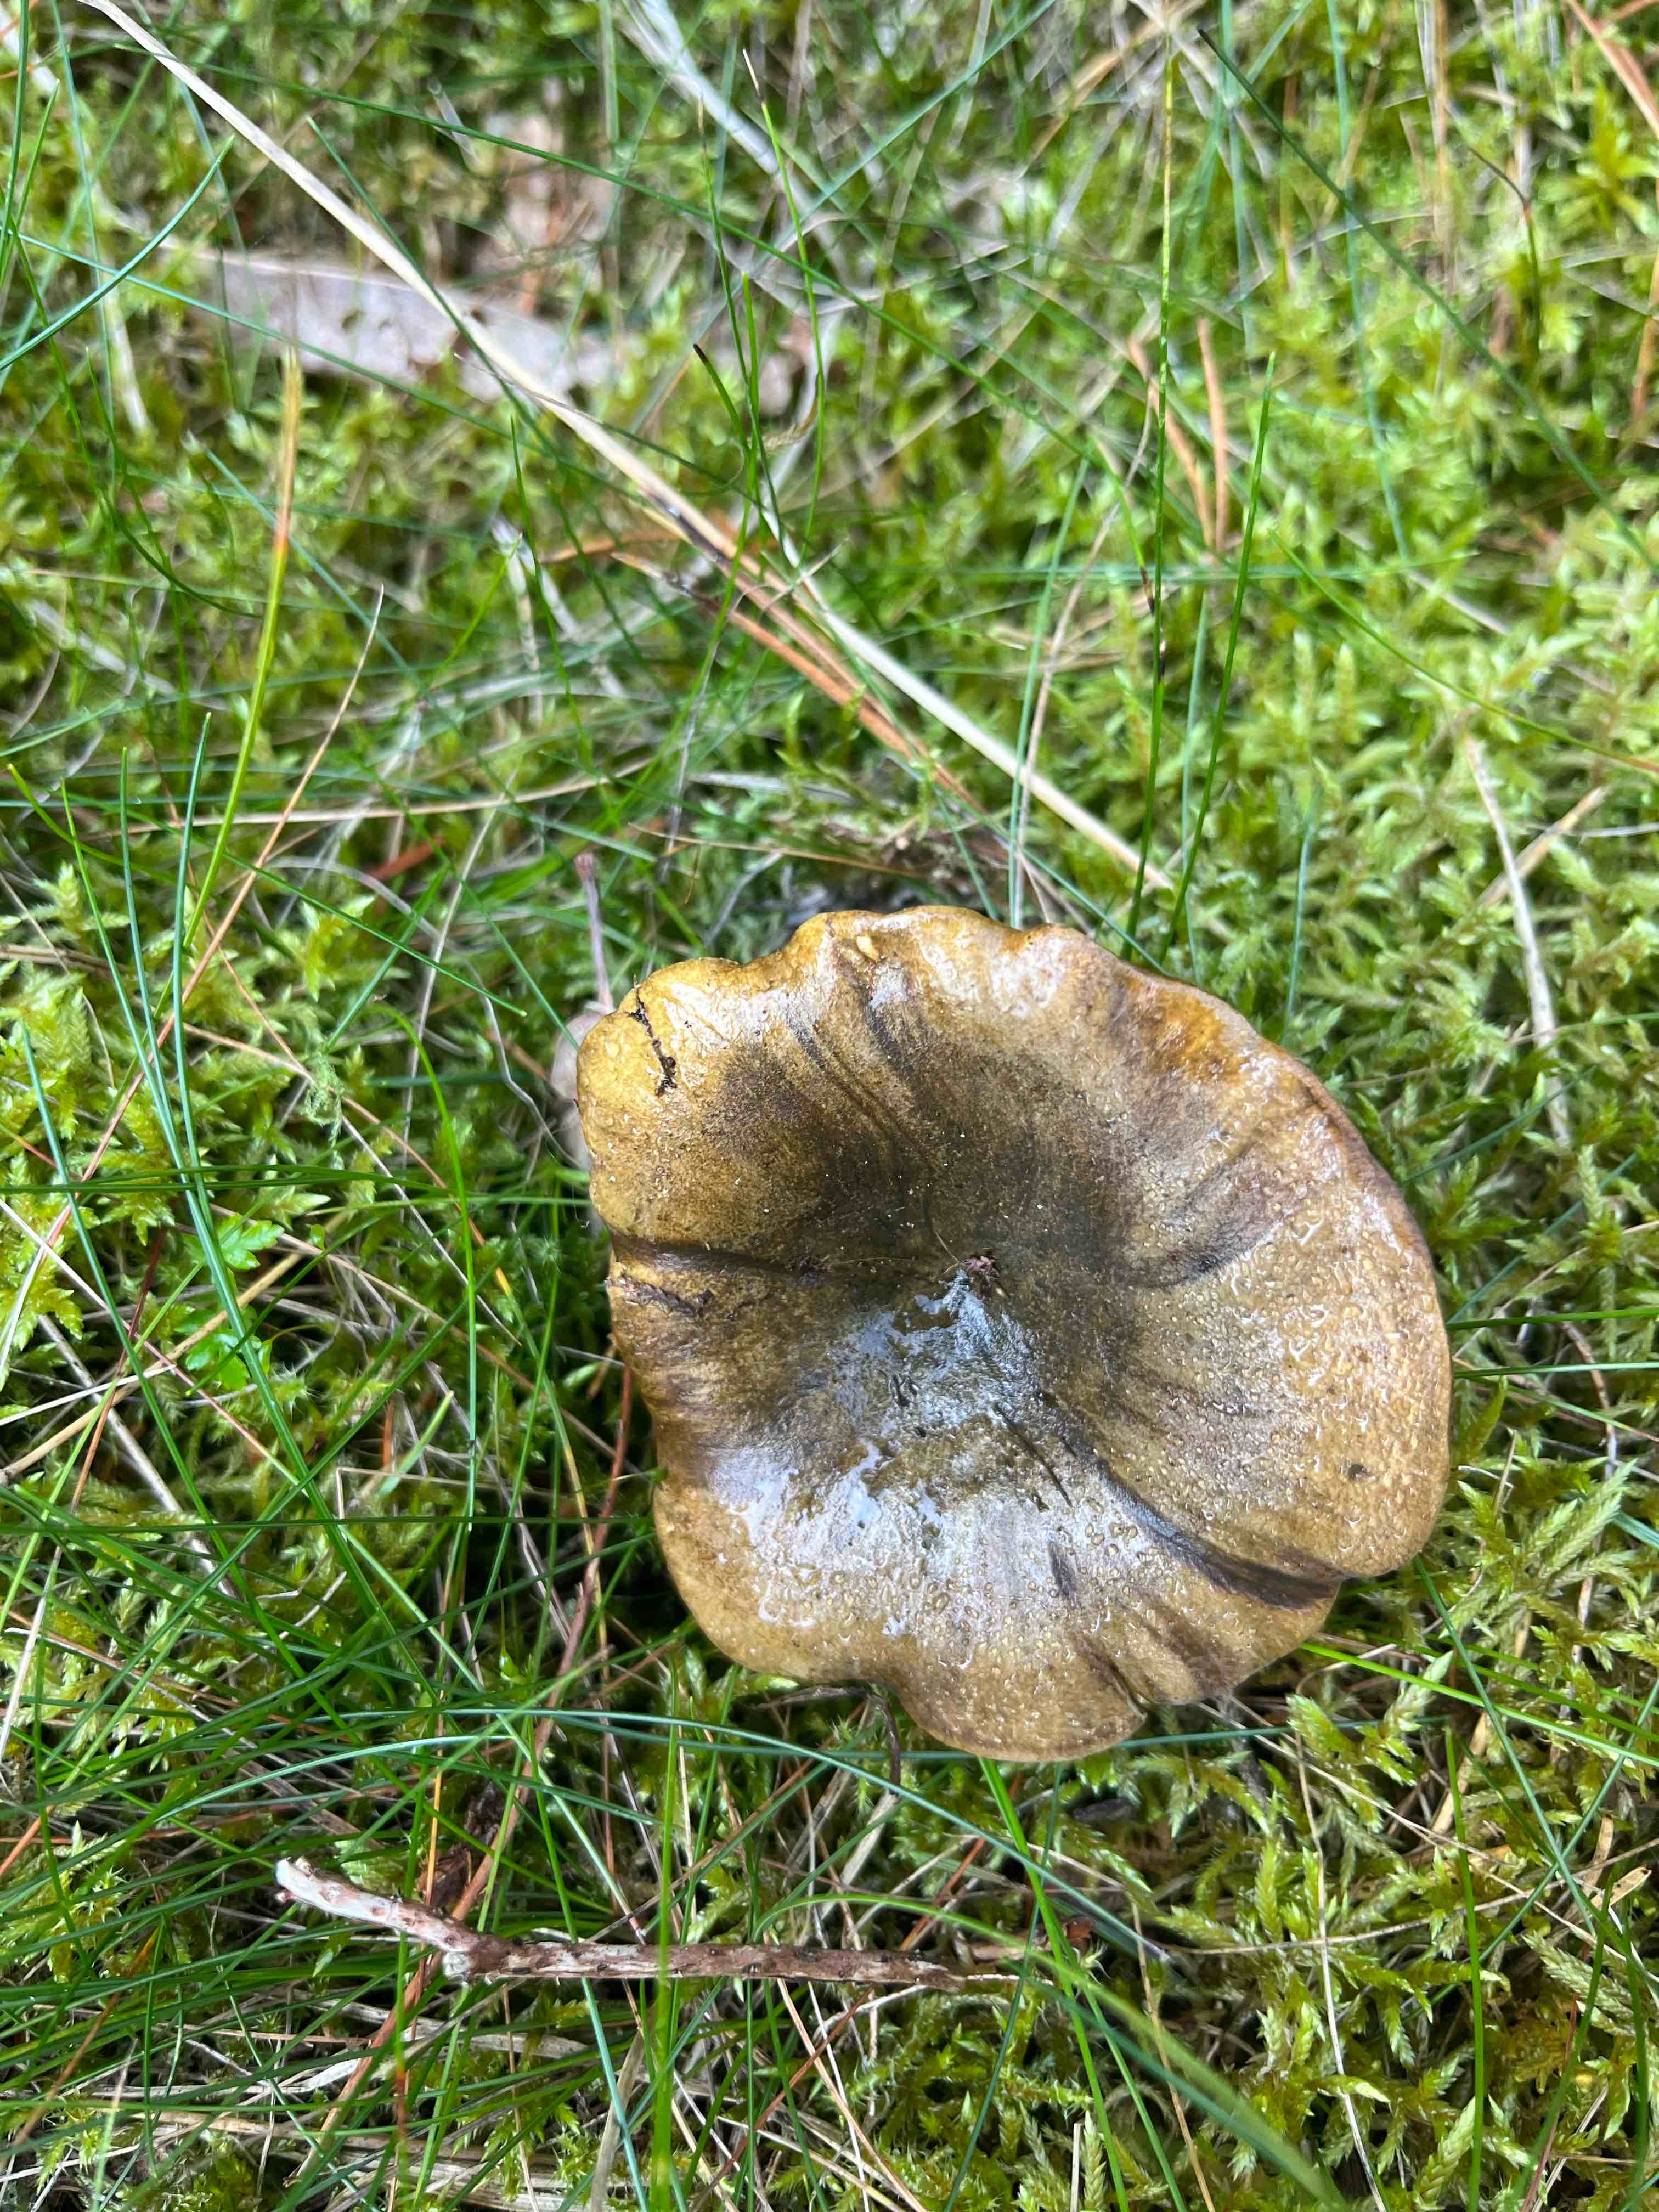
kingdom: Fungi
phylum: Basidiomycota
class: Agaricomycetes
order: Russulales
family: Russulaceae
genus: Lactarius
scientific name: Lactarius necator
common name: manddraber-mælkehat
